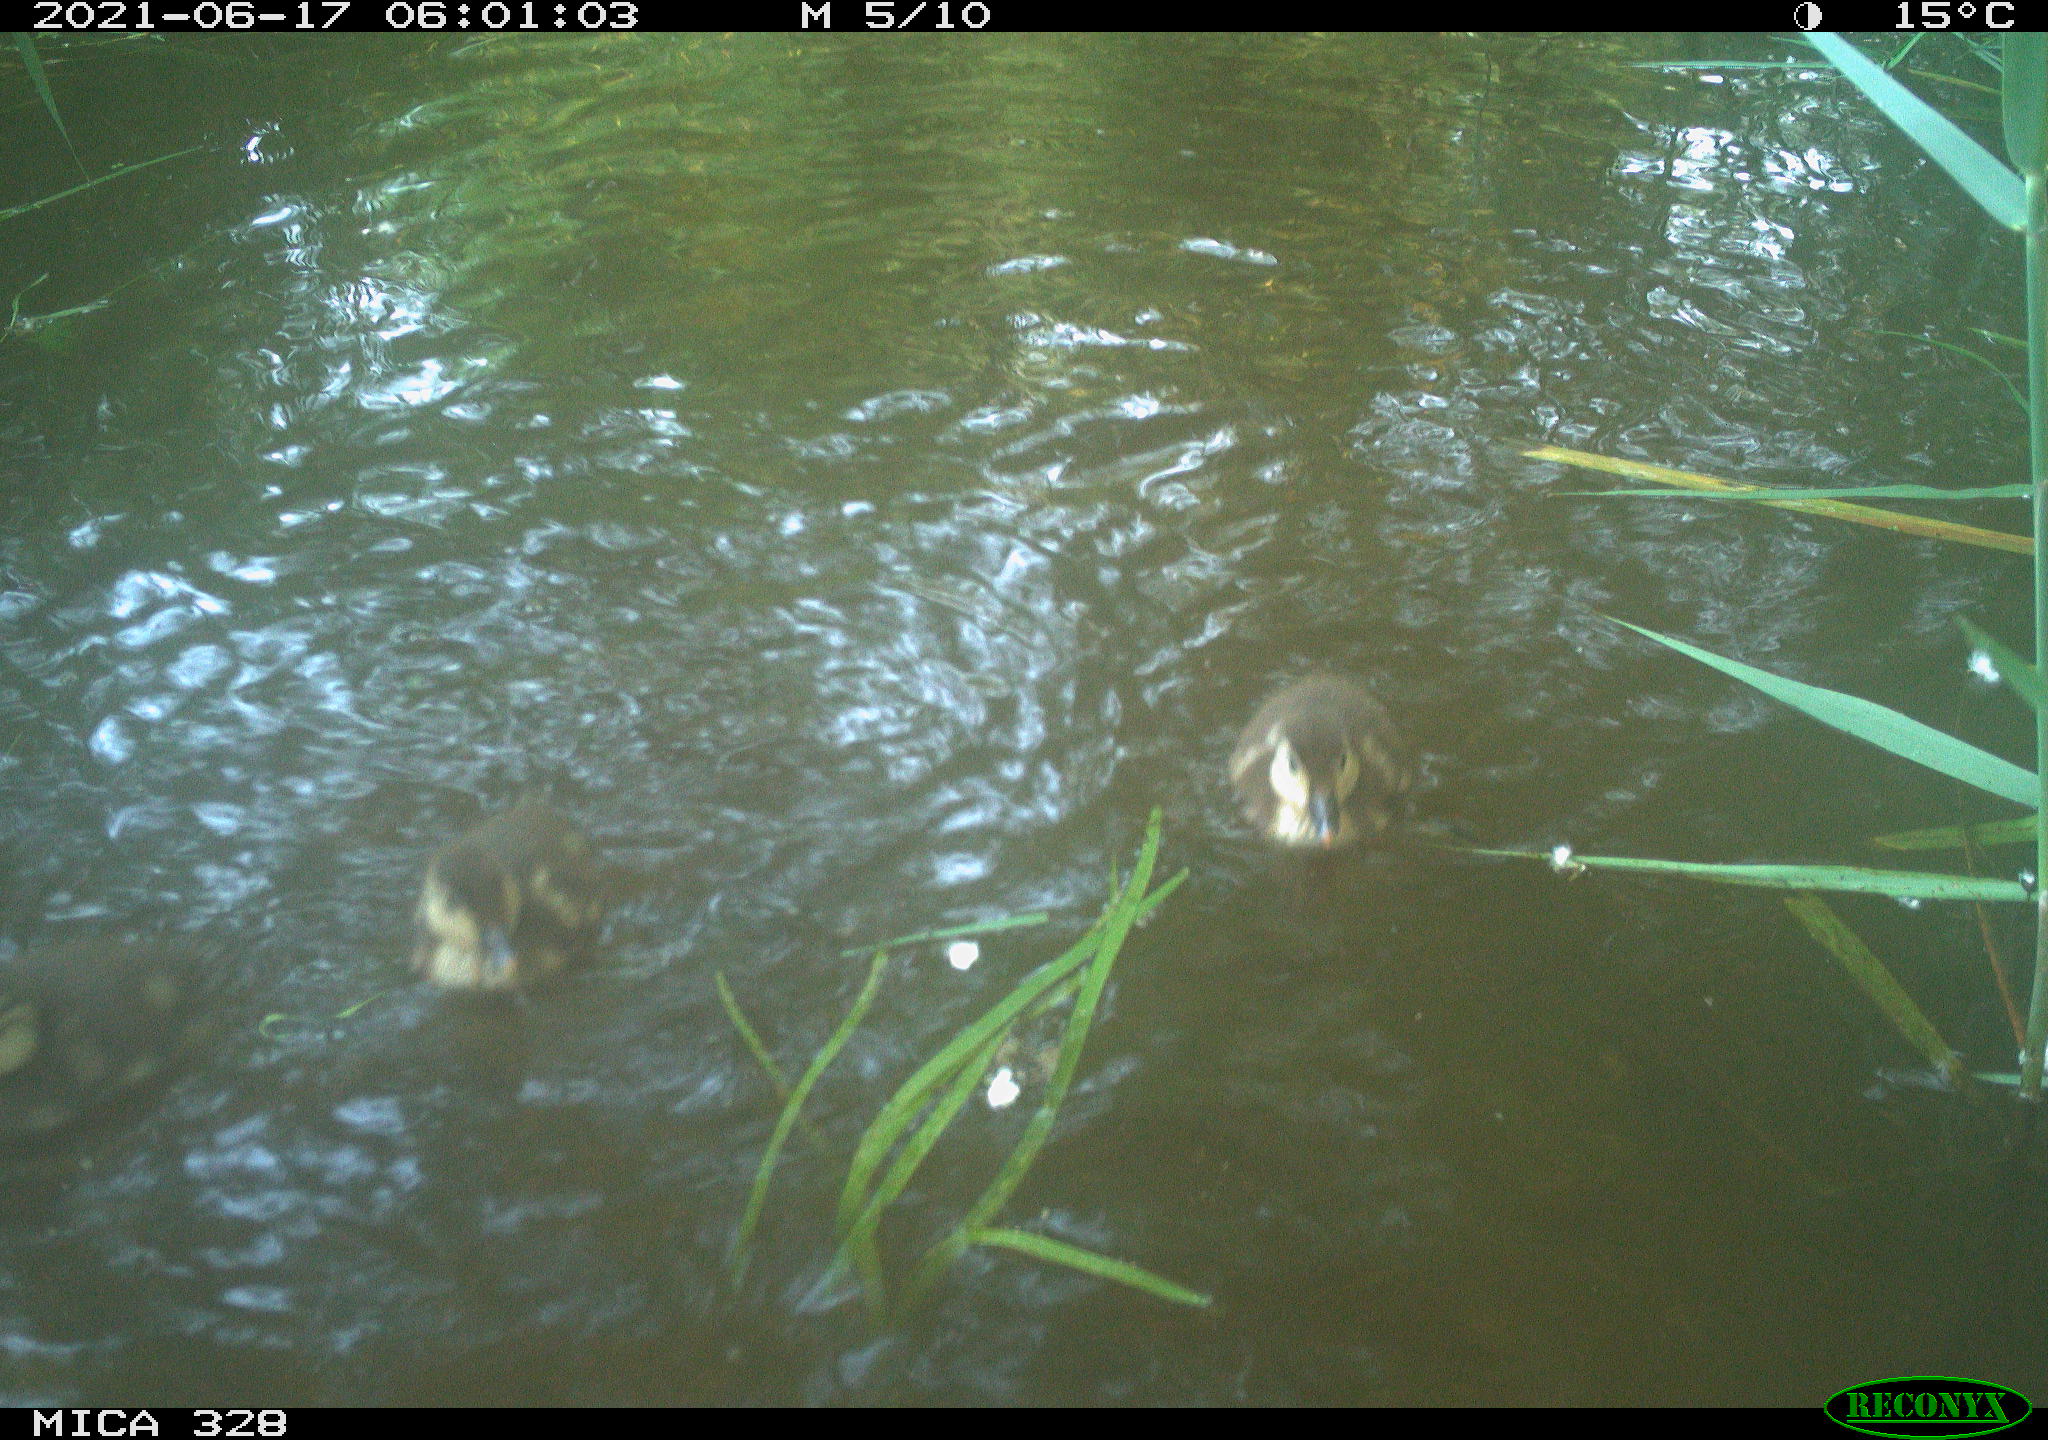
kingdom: Animalia
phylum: Chordata
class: Aves
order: Anseriformes
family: Anatidae
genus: Aix
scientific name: Aix galericulata
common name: Mandarin duck
